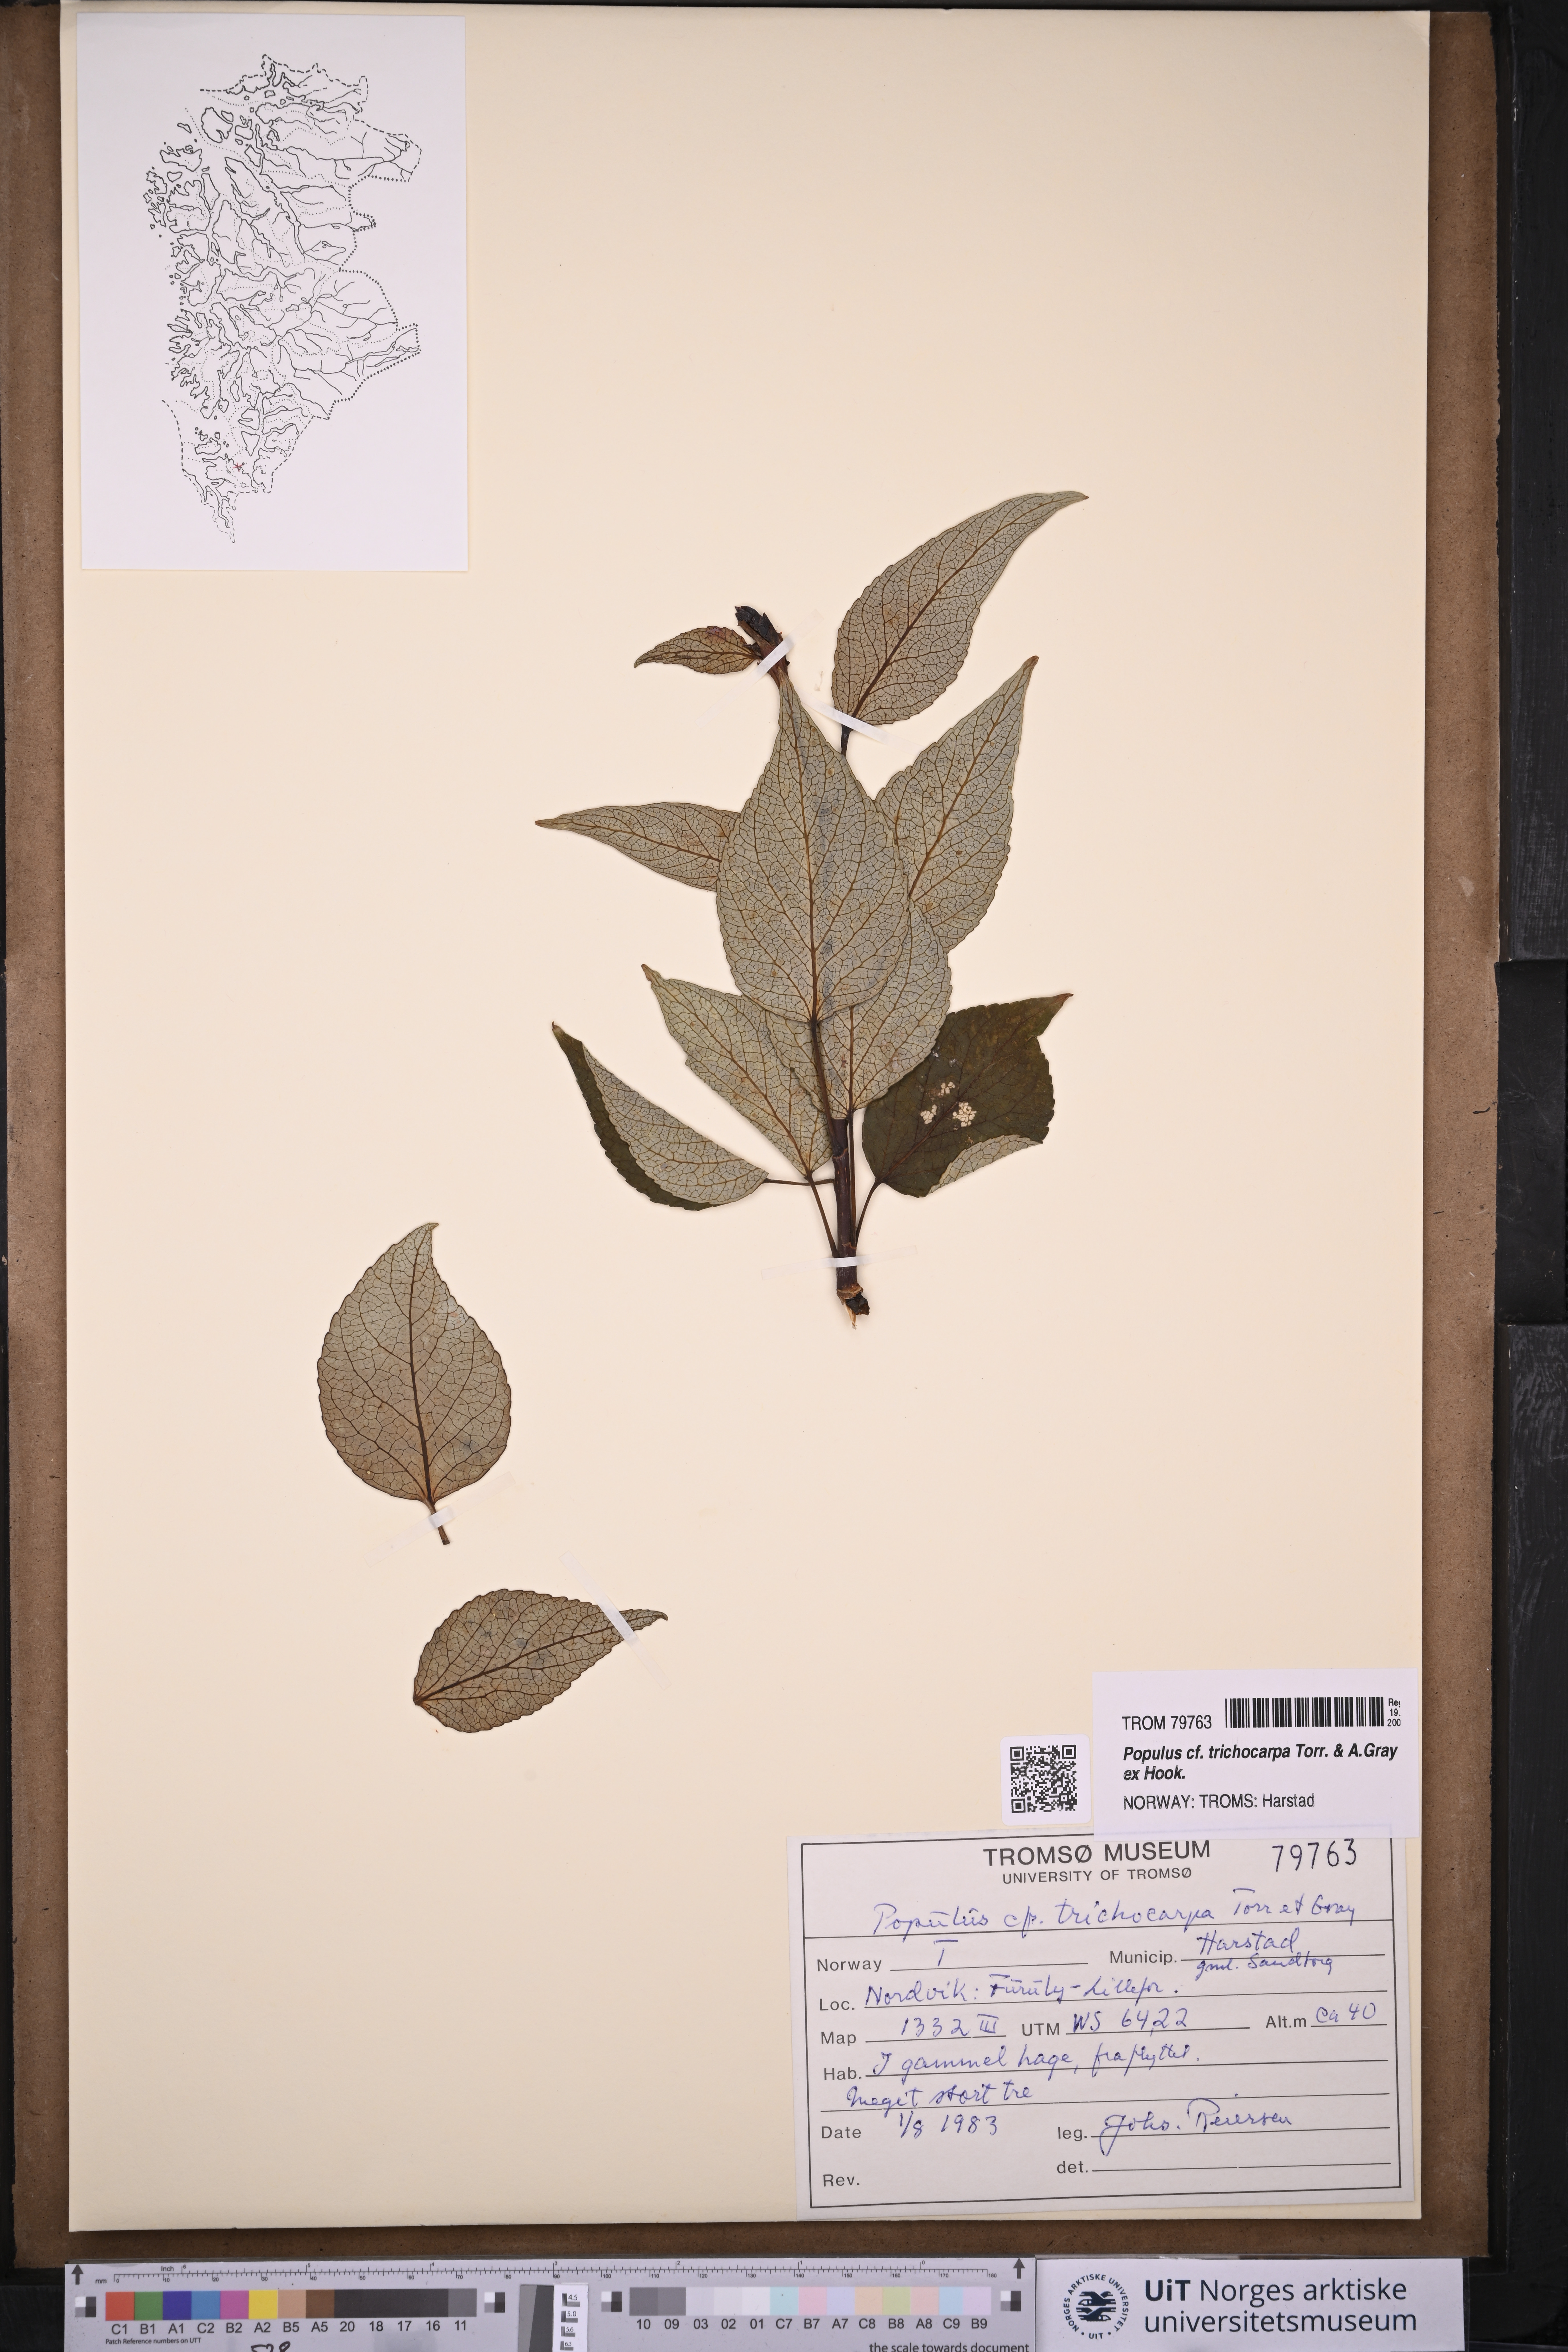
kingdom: Plantae
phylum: Tracheophyta
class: Magnoliopsida
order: Malpighiales
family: Salicaceae
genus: Populus
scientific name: Populus trichocarpa
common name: Black cottonwood
